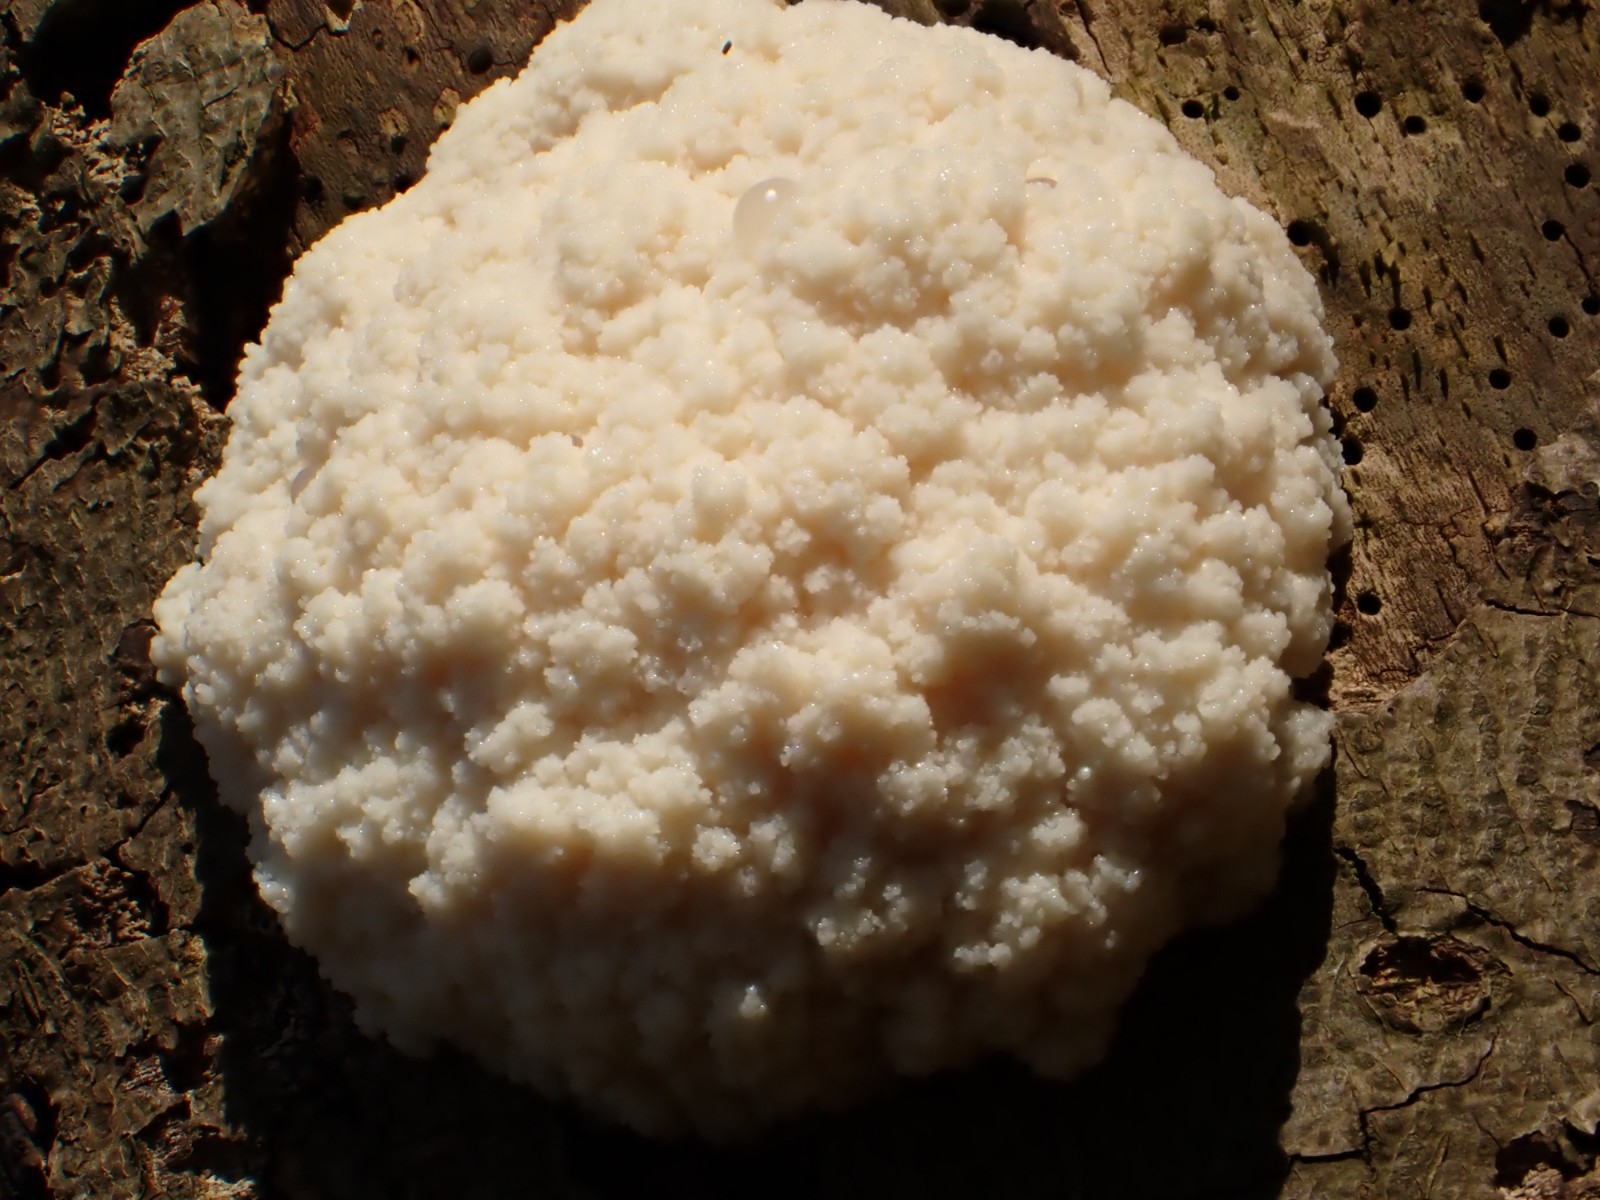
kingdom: Protozoa
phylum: Mycetozoa
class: Myxomycetes
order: Cribrariales
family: Tubiferaceae
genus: Reticularia
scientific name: Reticularia lycoperdon
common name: skinnende støvpude
